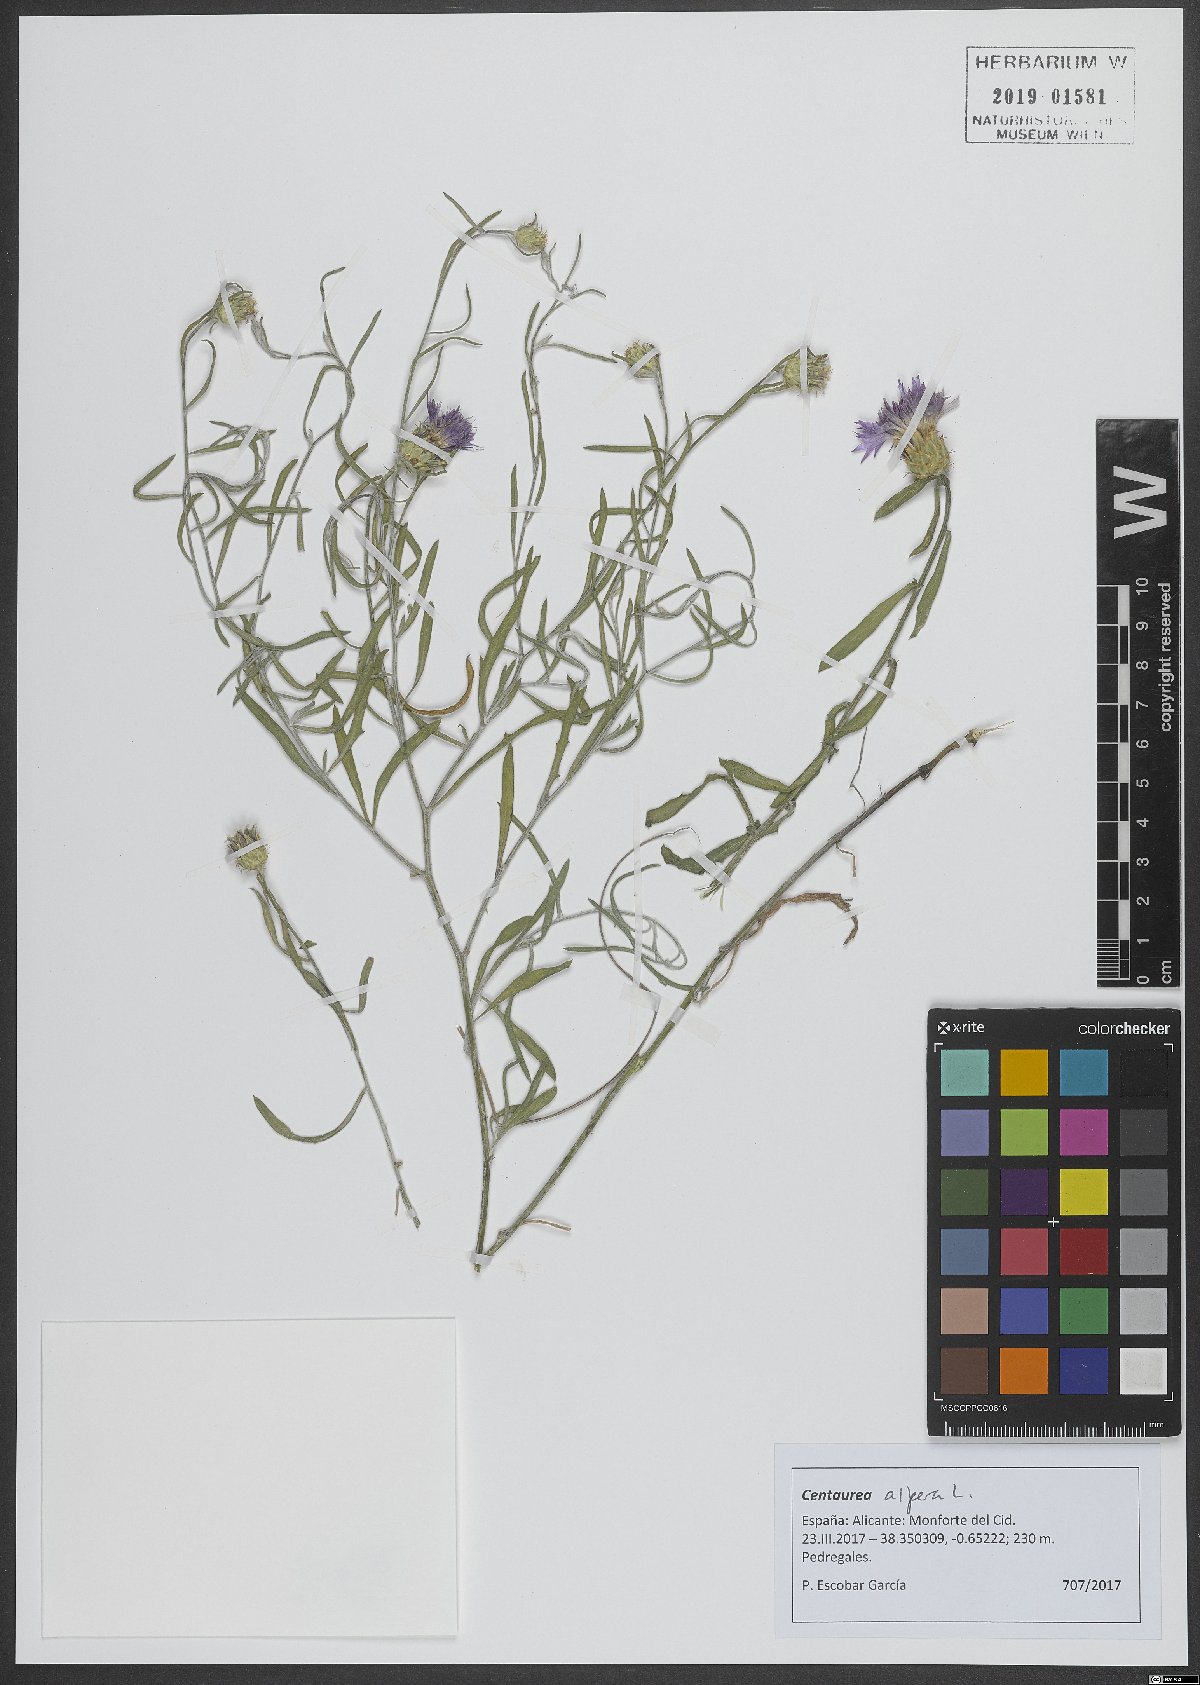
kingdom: Plantae
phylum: Tracheophyta
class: Magnoliopsida
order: Asterales
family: Asteraceae
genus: Centaurea
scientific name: Centaurea aspera
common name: Rough star-thistle
